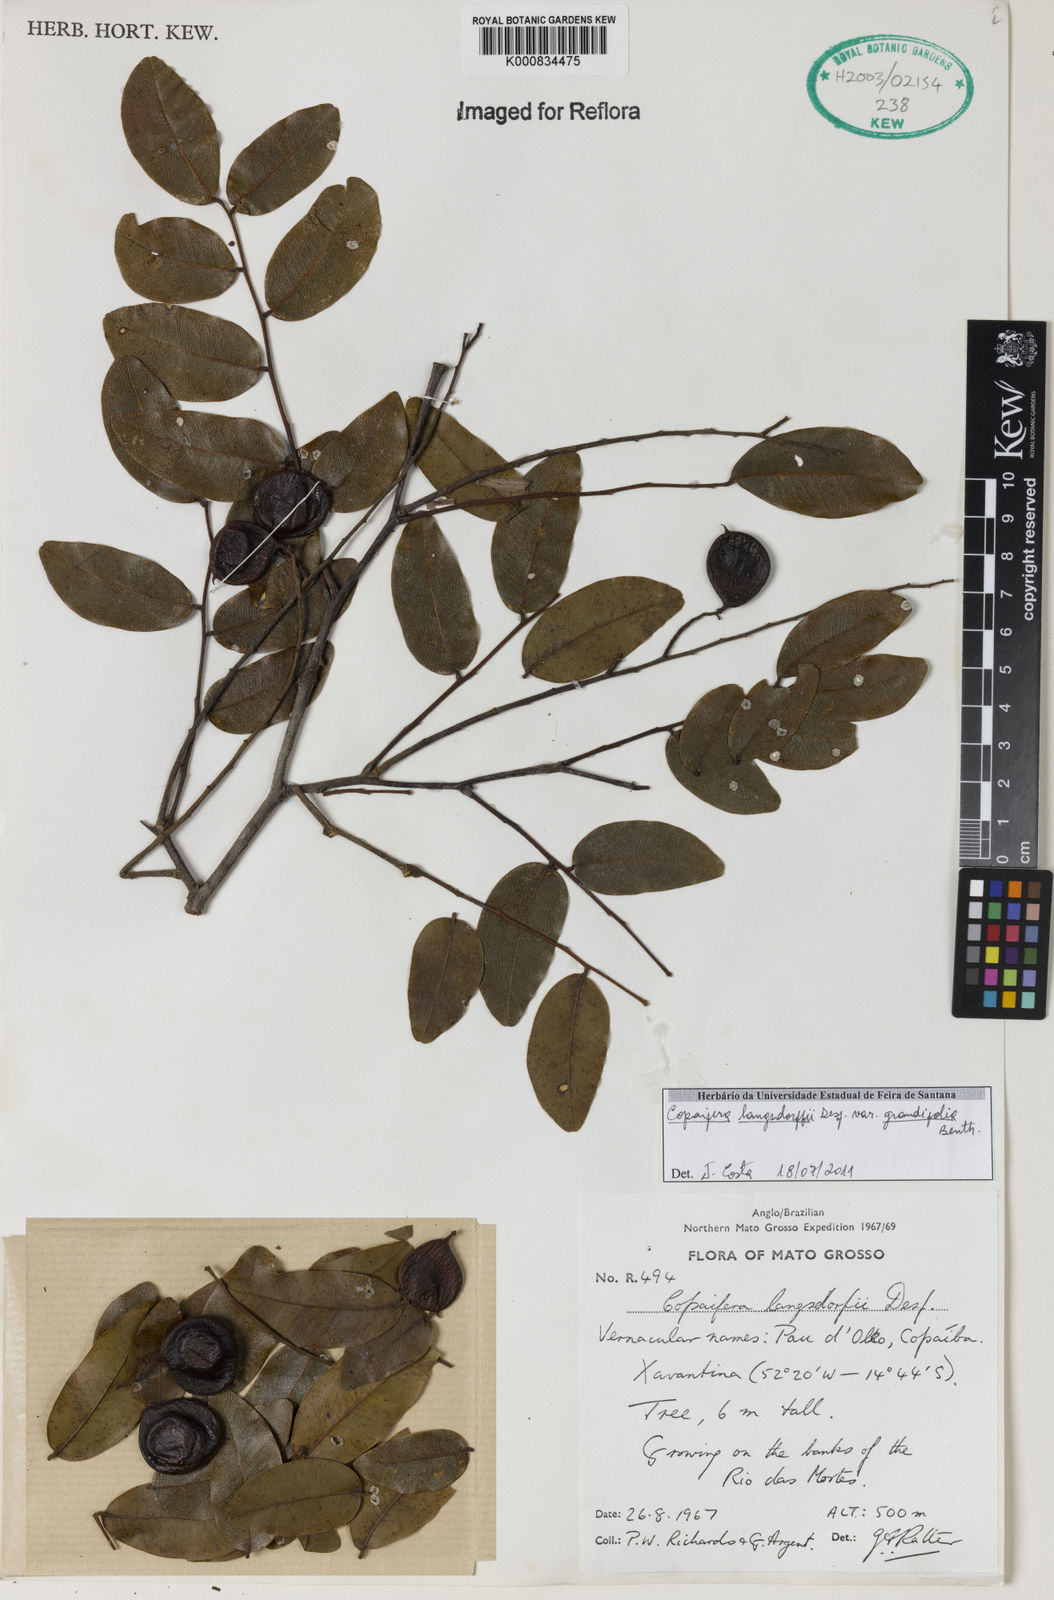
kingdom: Plantae
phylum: Tracheophyta
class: Magnoliopsida
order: Fabales
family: Fabaceae
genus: Copaifera
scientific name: Copaifera langsdorffii
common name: Brazilian diesel tree
